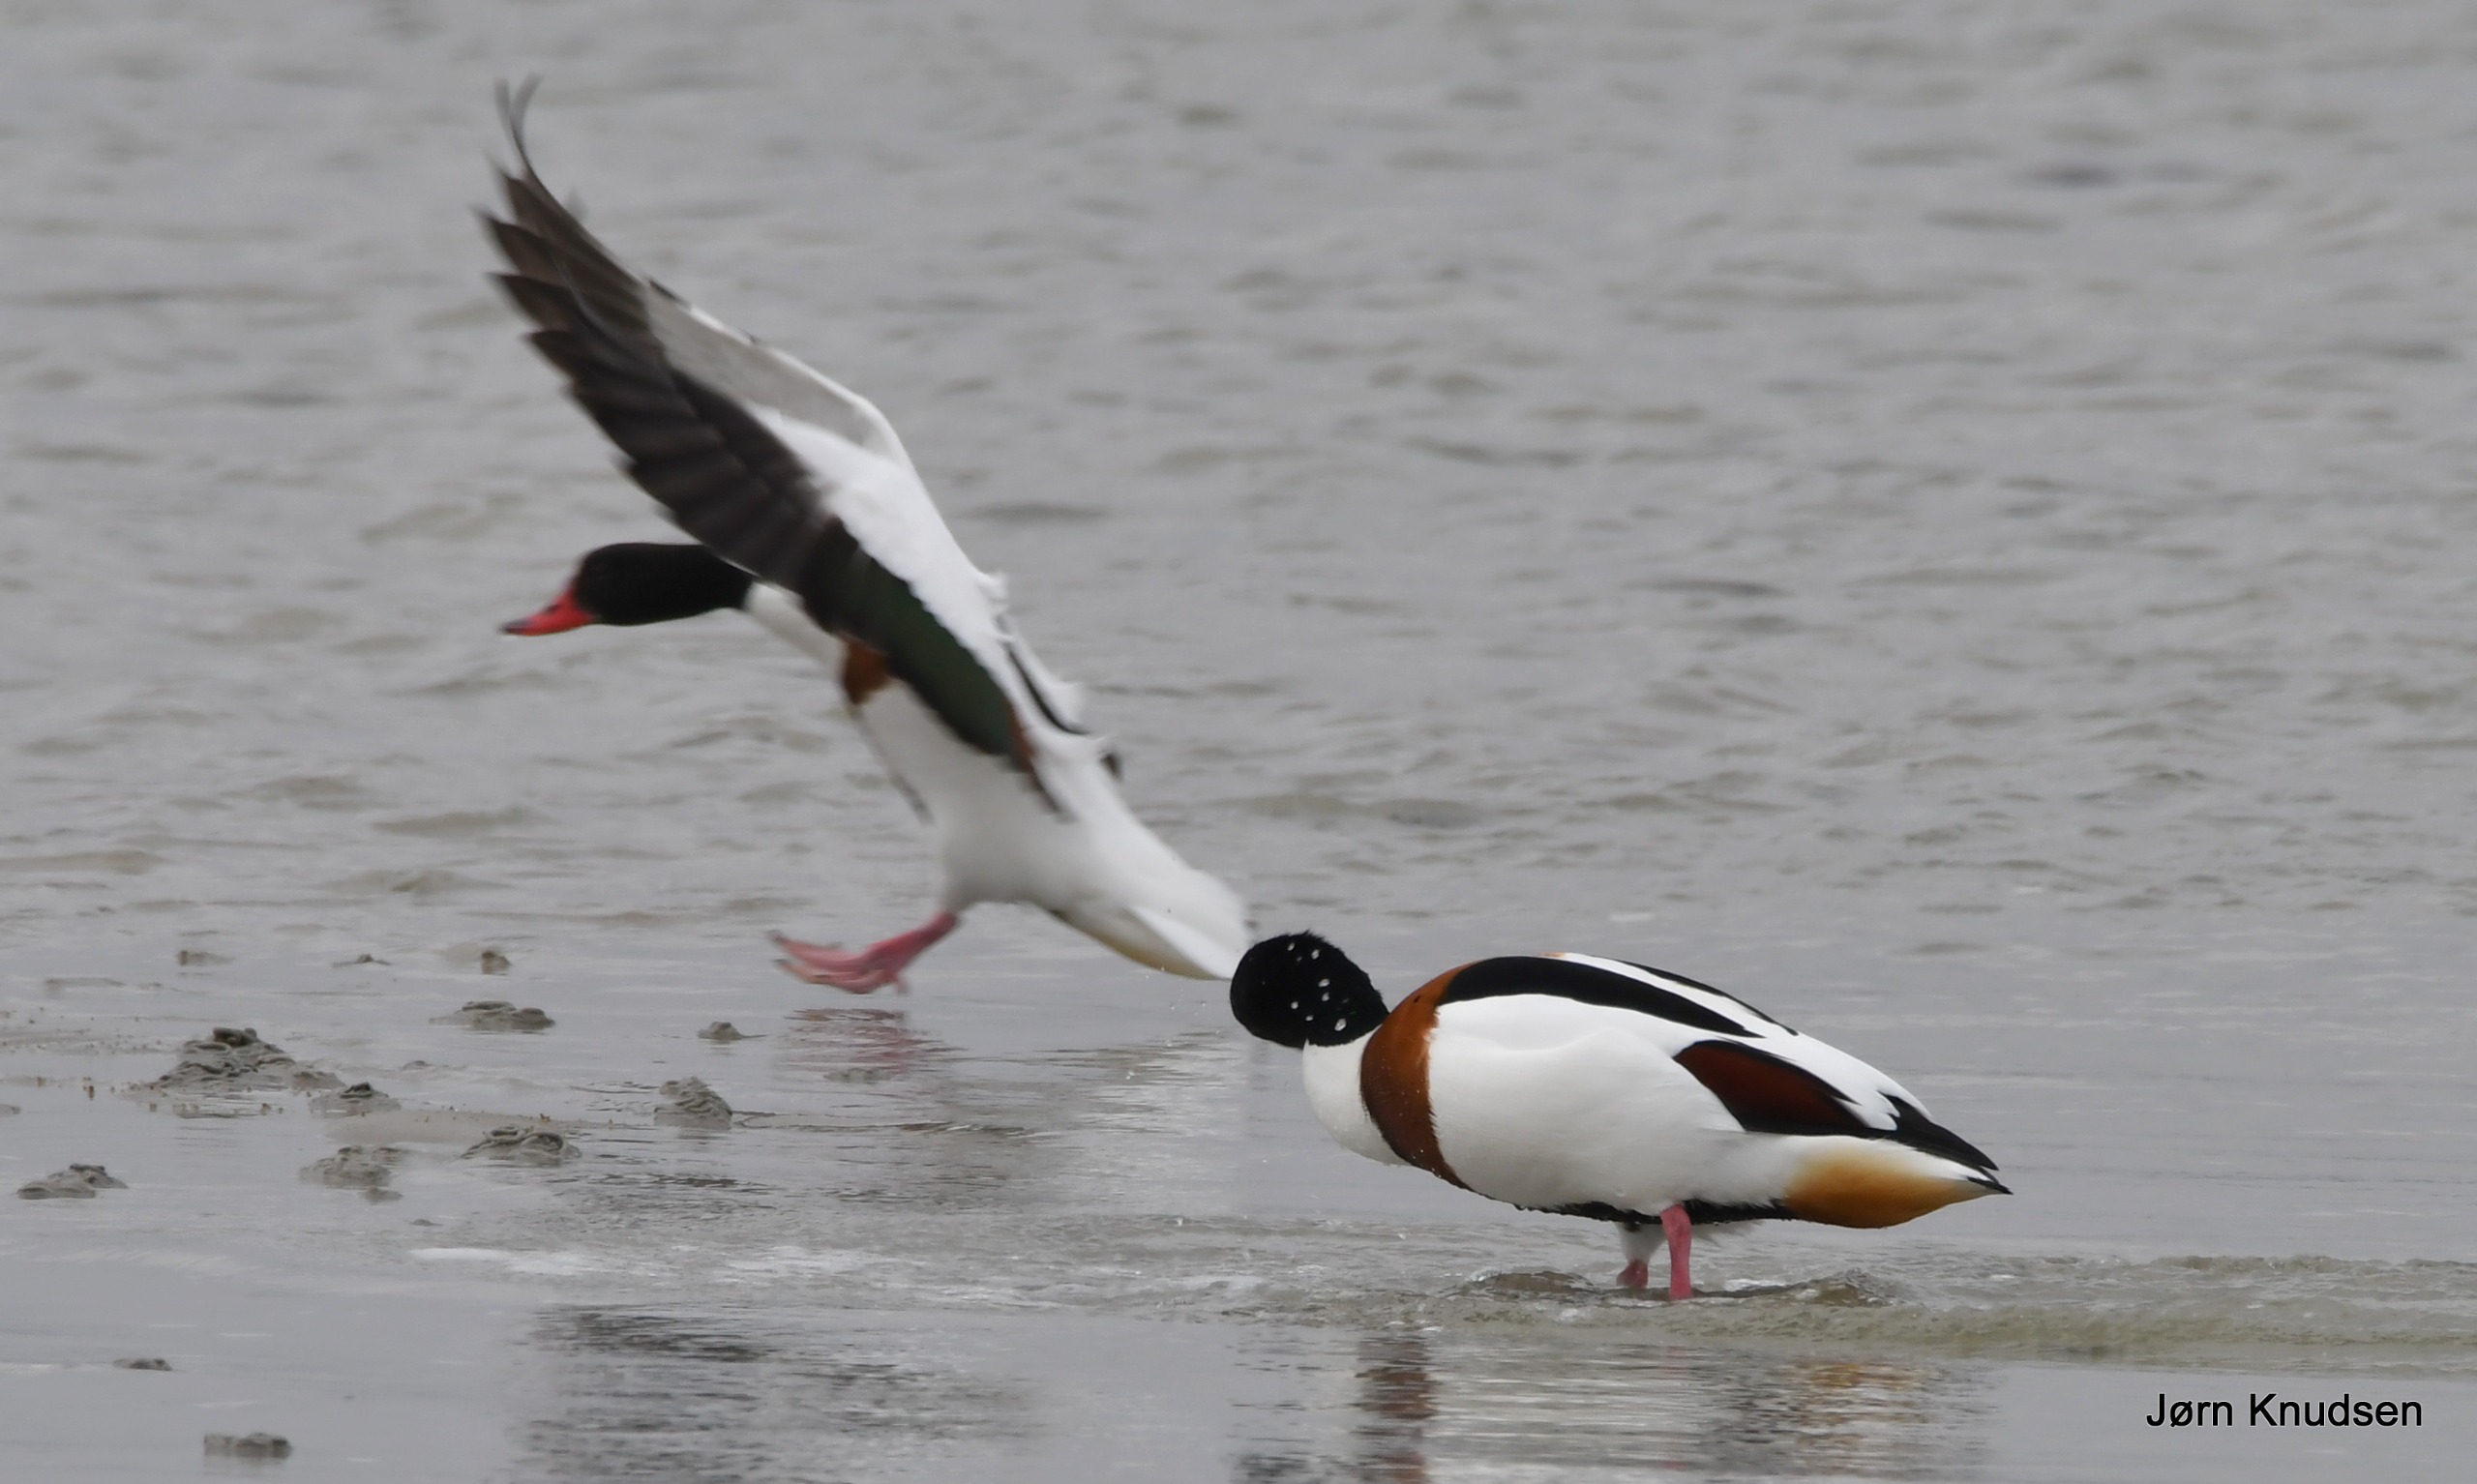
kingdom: Animalia
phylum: Chordata
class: Aves
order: Anseriformes
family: Anatidae
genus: Tadorna
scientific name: Tadorna tadorna
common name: Gravand
